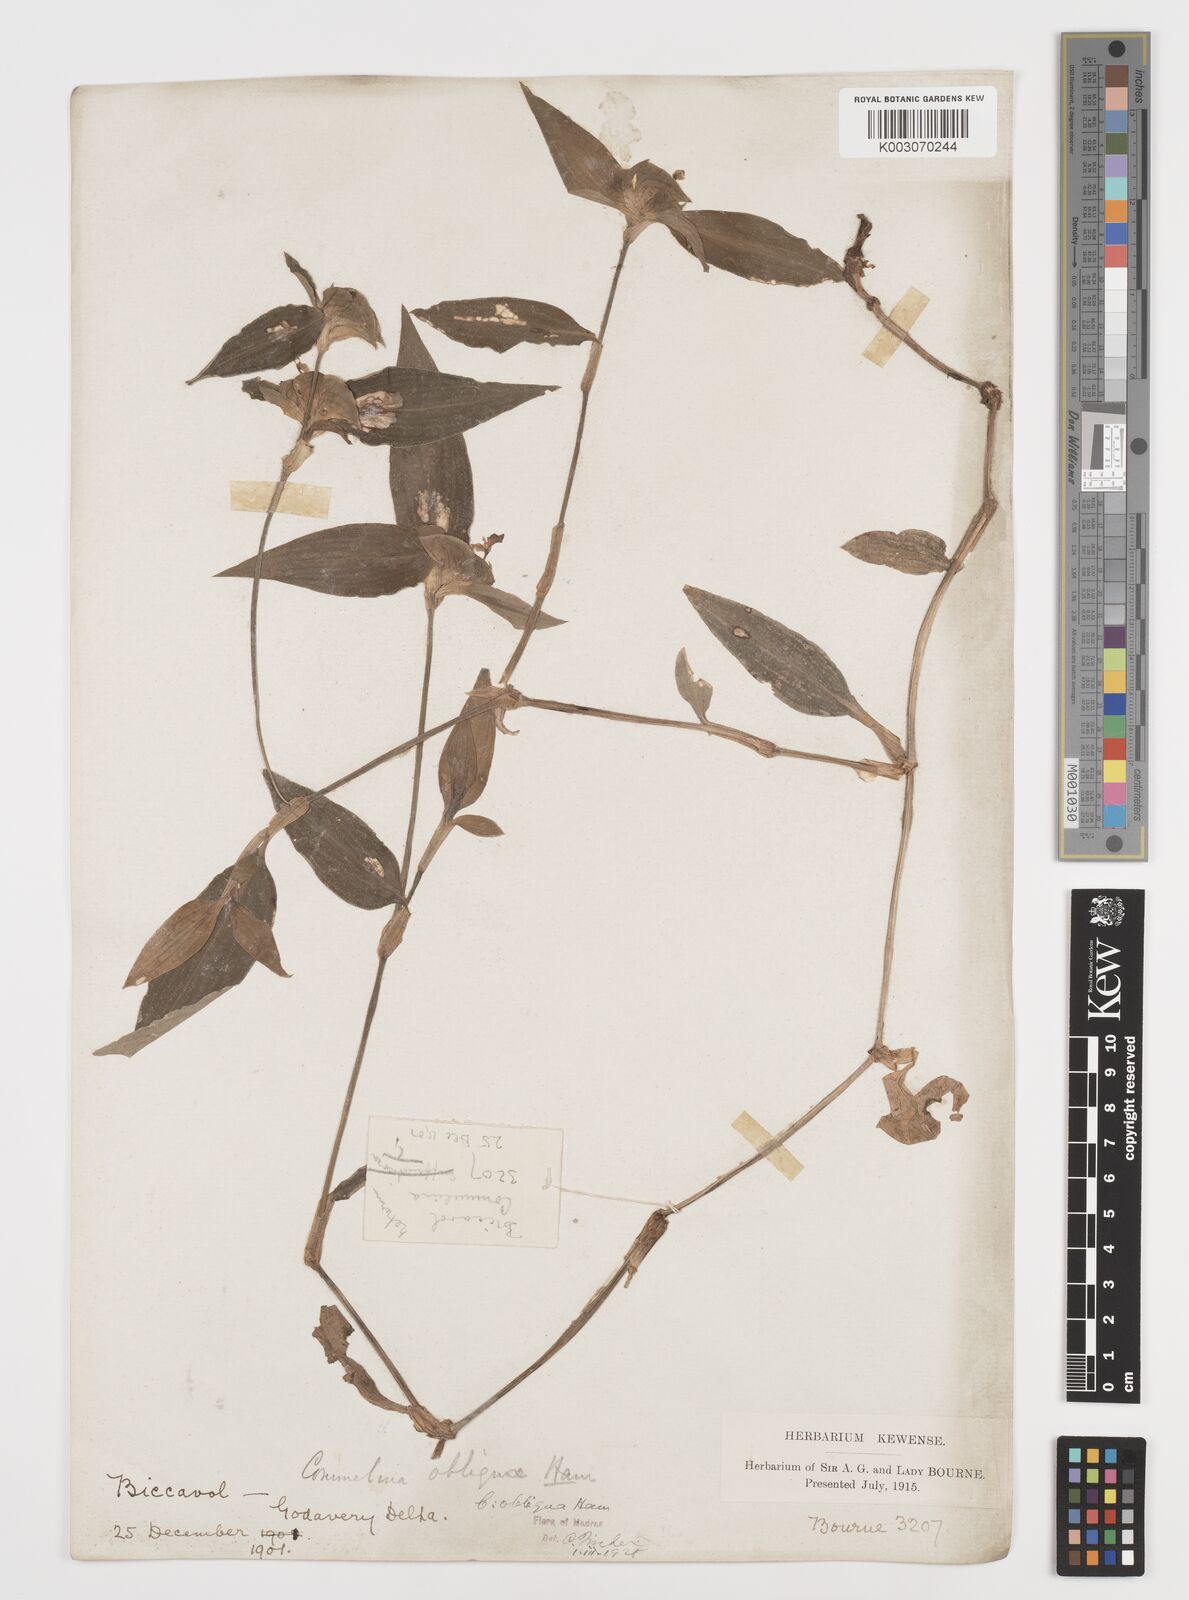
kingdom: Plantae
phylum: Tracheophyta
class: Liliopsida
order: Commelinales
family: Commelinaceae
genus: Commelina
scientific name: Commelina paludosa
